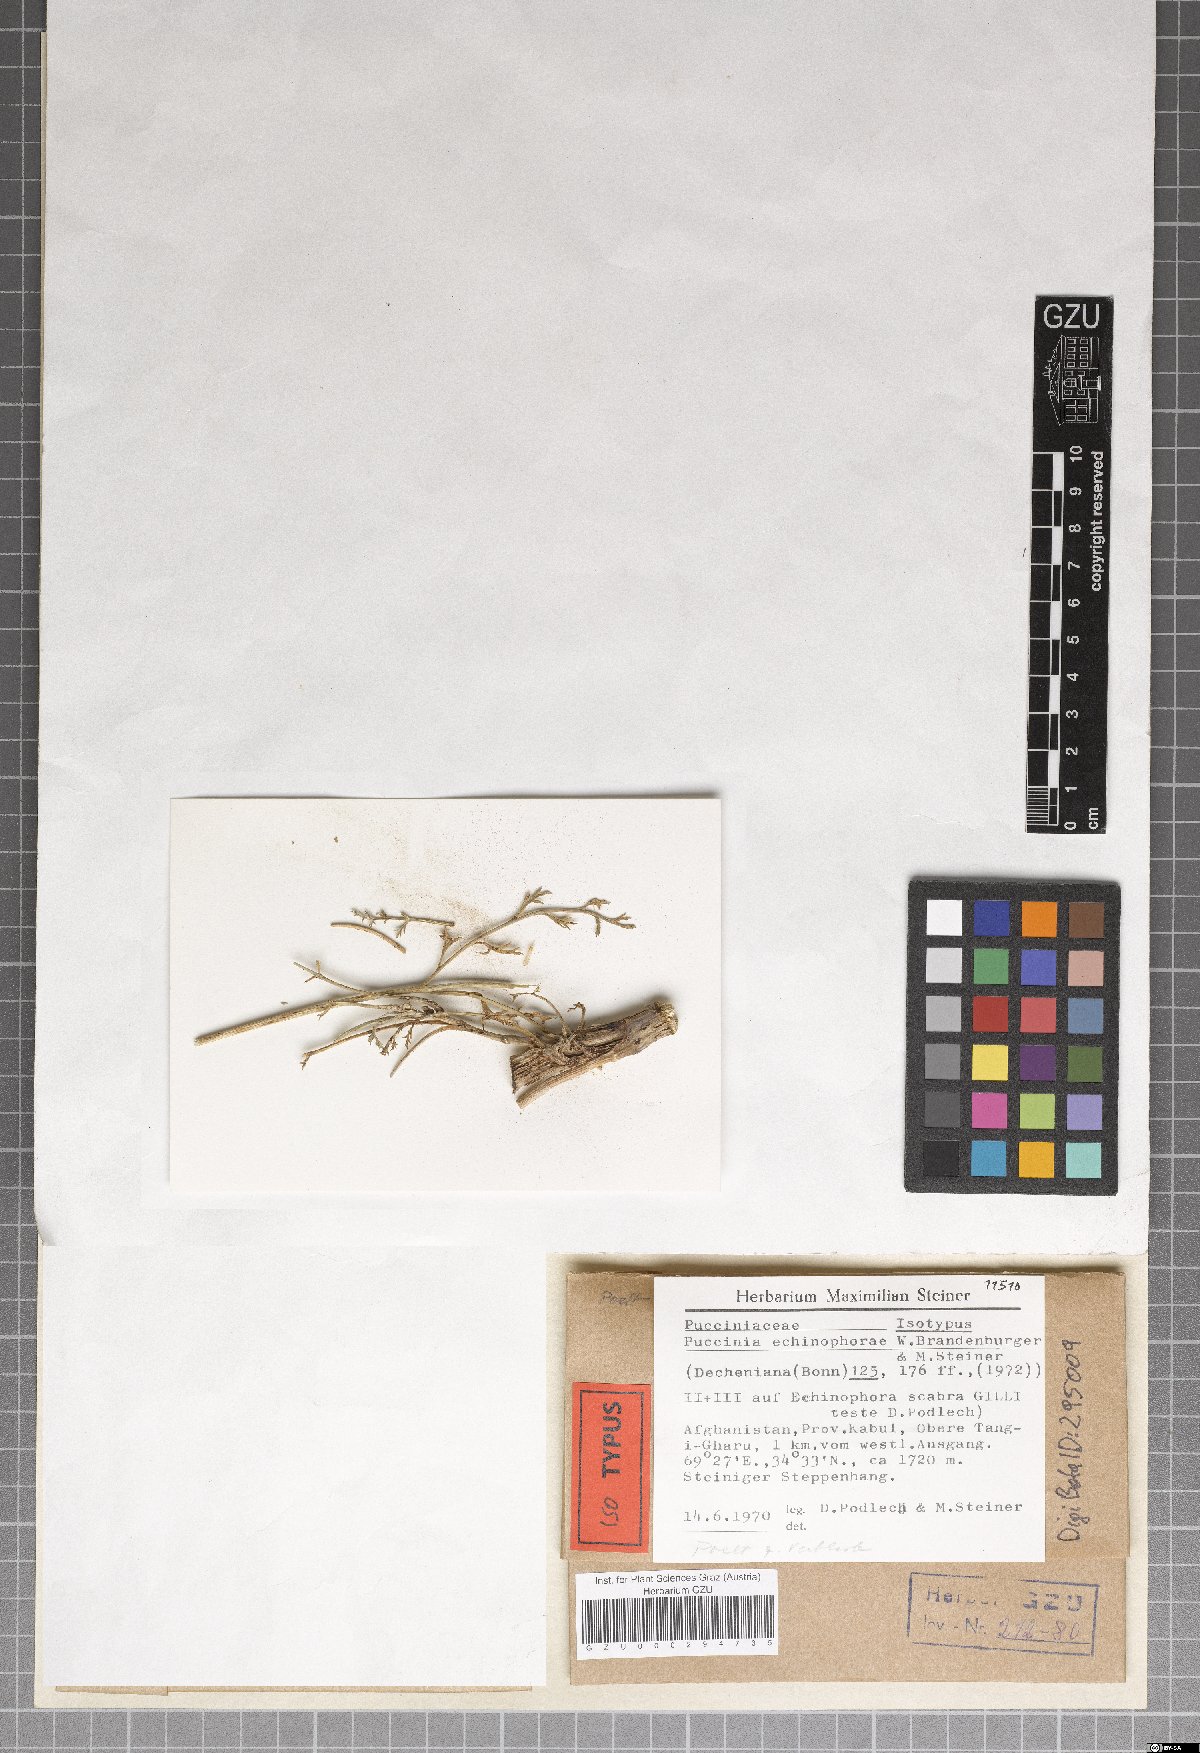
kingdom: Fungi
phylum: Basidiomycota
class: Pucciniomycetes
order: Pucciniales
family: Pucciniaceae
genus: Puccinia
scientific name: Puccinia echinophorae
